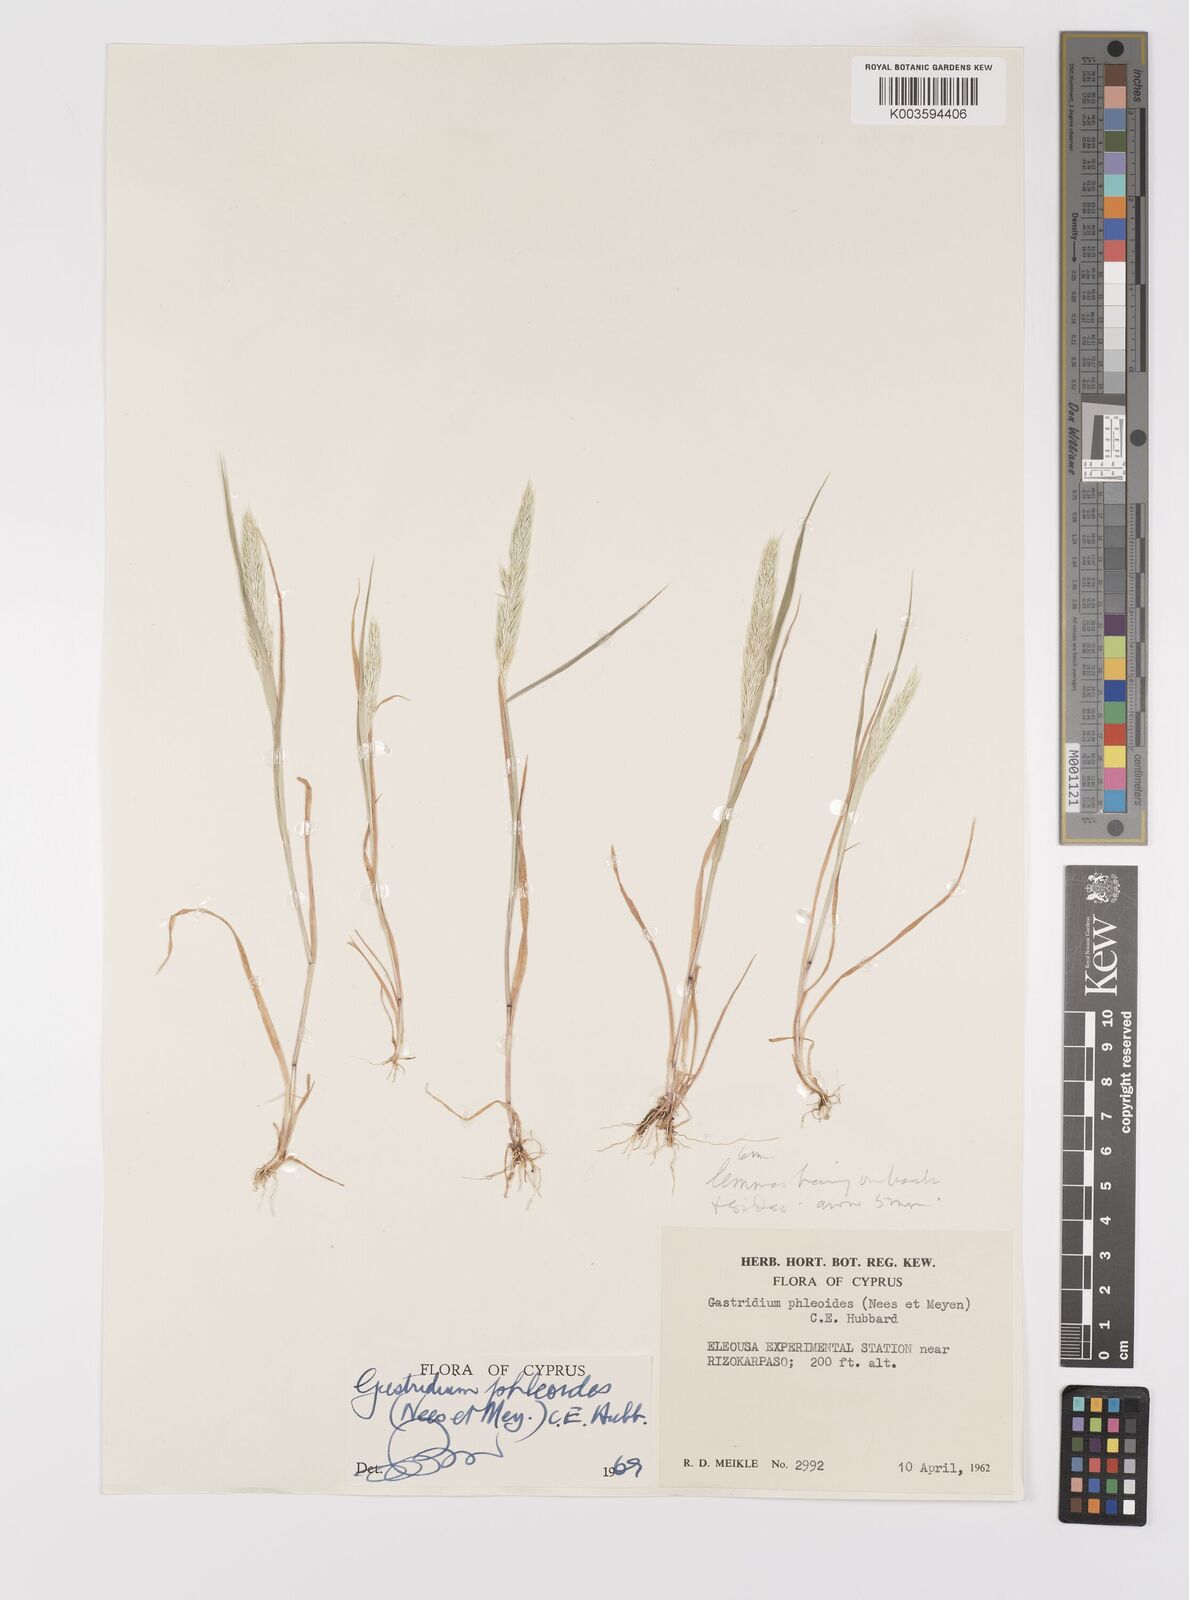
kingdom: Plantae
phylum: Tracheophyta
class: Liliopsida
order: Poales
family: Poaceae
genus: Gastridium
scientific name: Gastridium phleoides
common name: Nit grass
